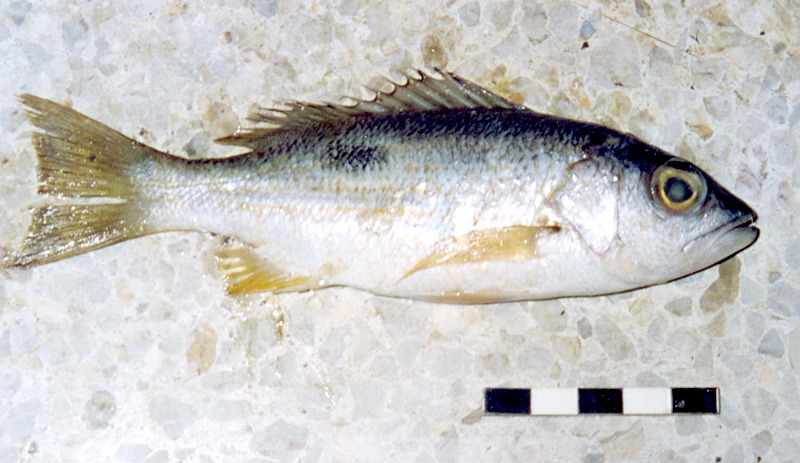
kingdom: Animalia
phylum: Chordata
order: Perciformes
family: Lutjanidae
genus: Lutjanus
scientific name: Lutjanus ehrenbergii
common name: Blackspot snapper
